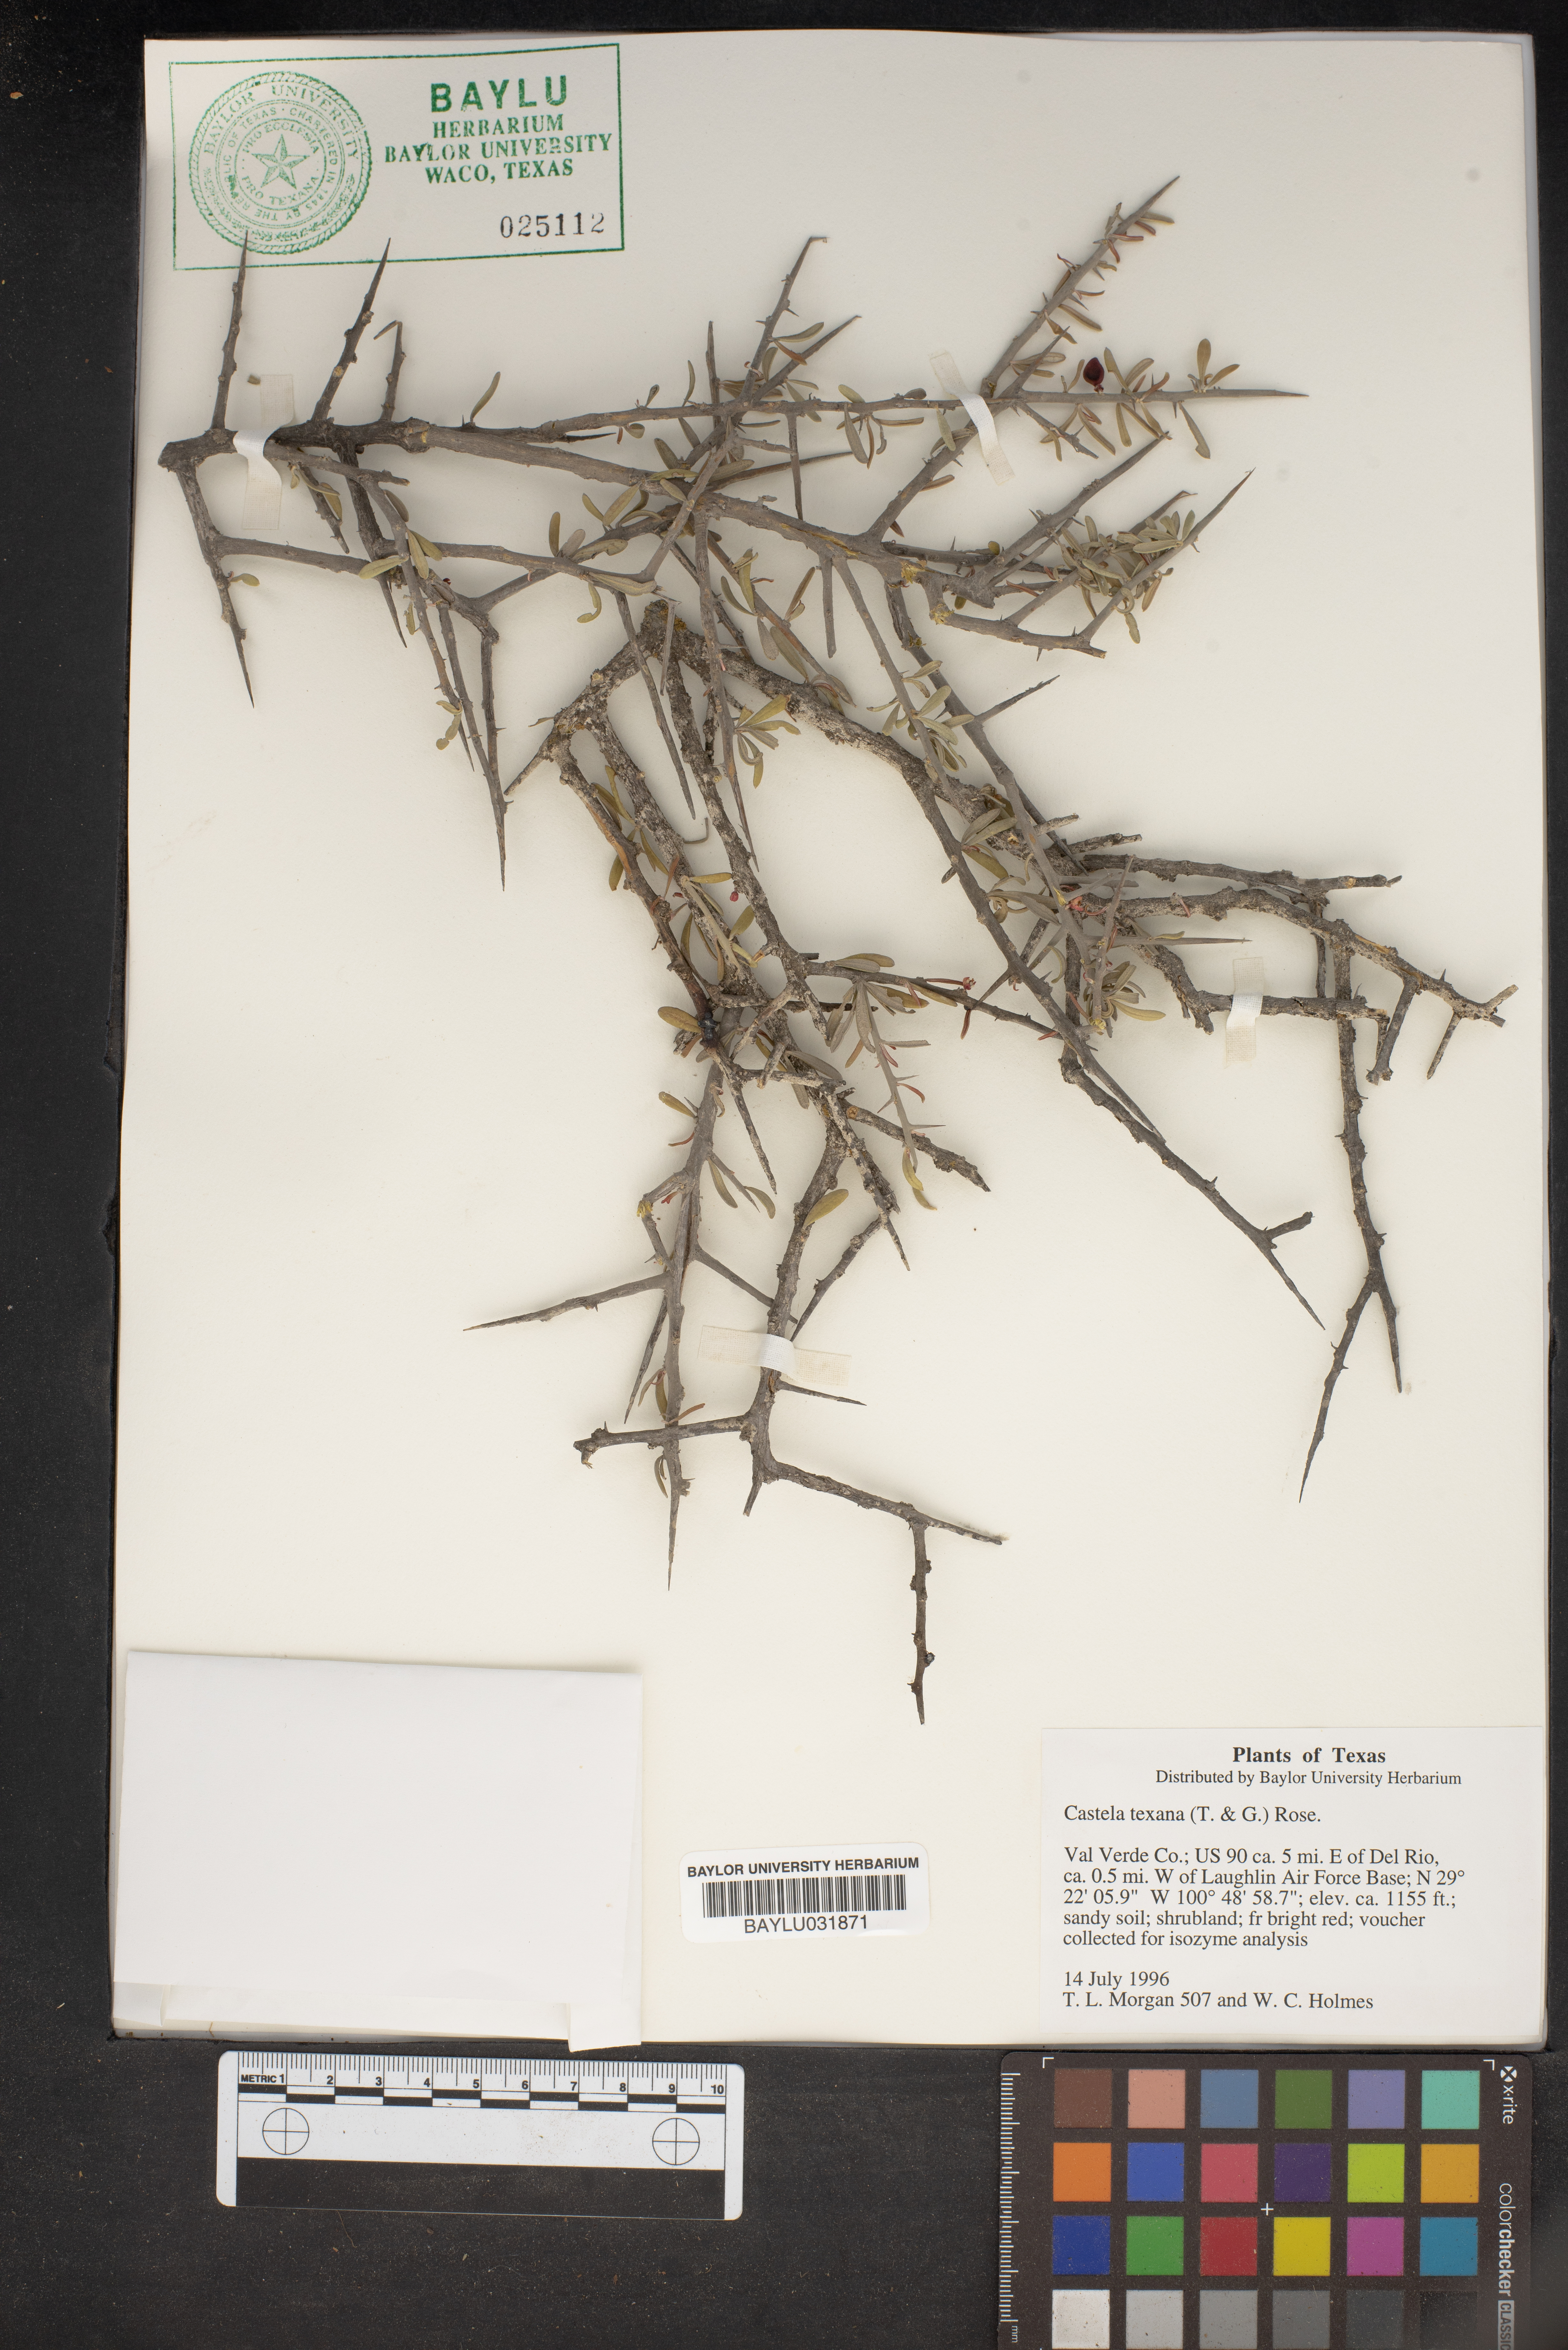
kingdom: Plantae
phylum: Tracheophyta
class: Magnoliopsida
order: Sapindales
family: Simaroubaceae
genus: Castela
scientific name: Castela tortuosa
